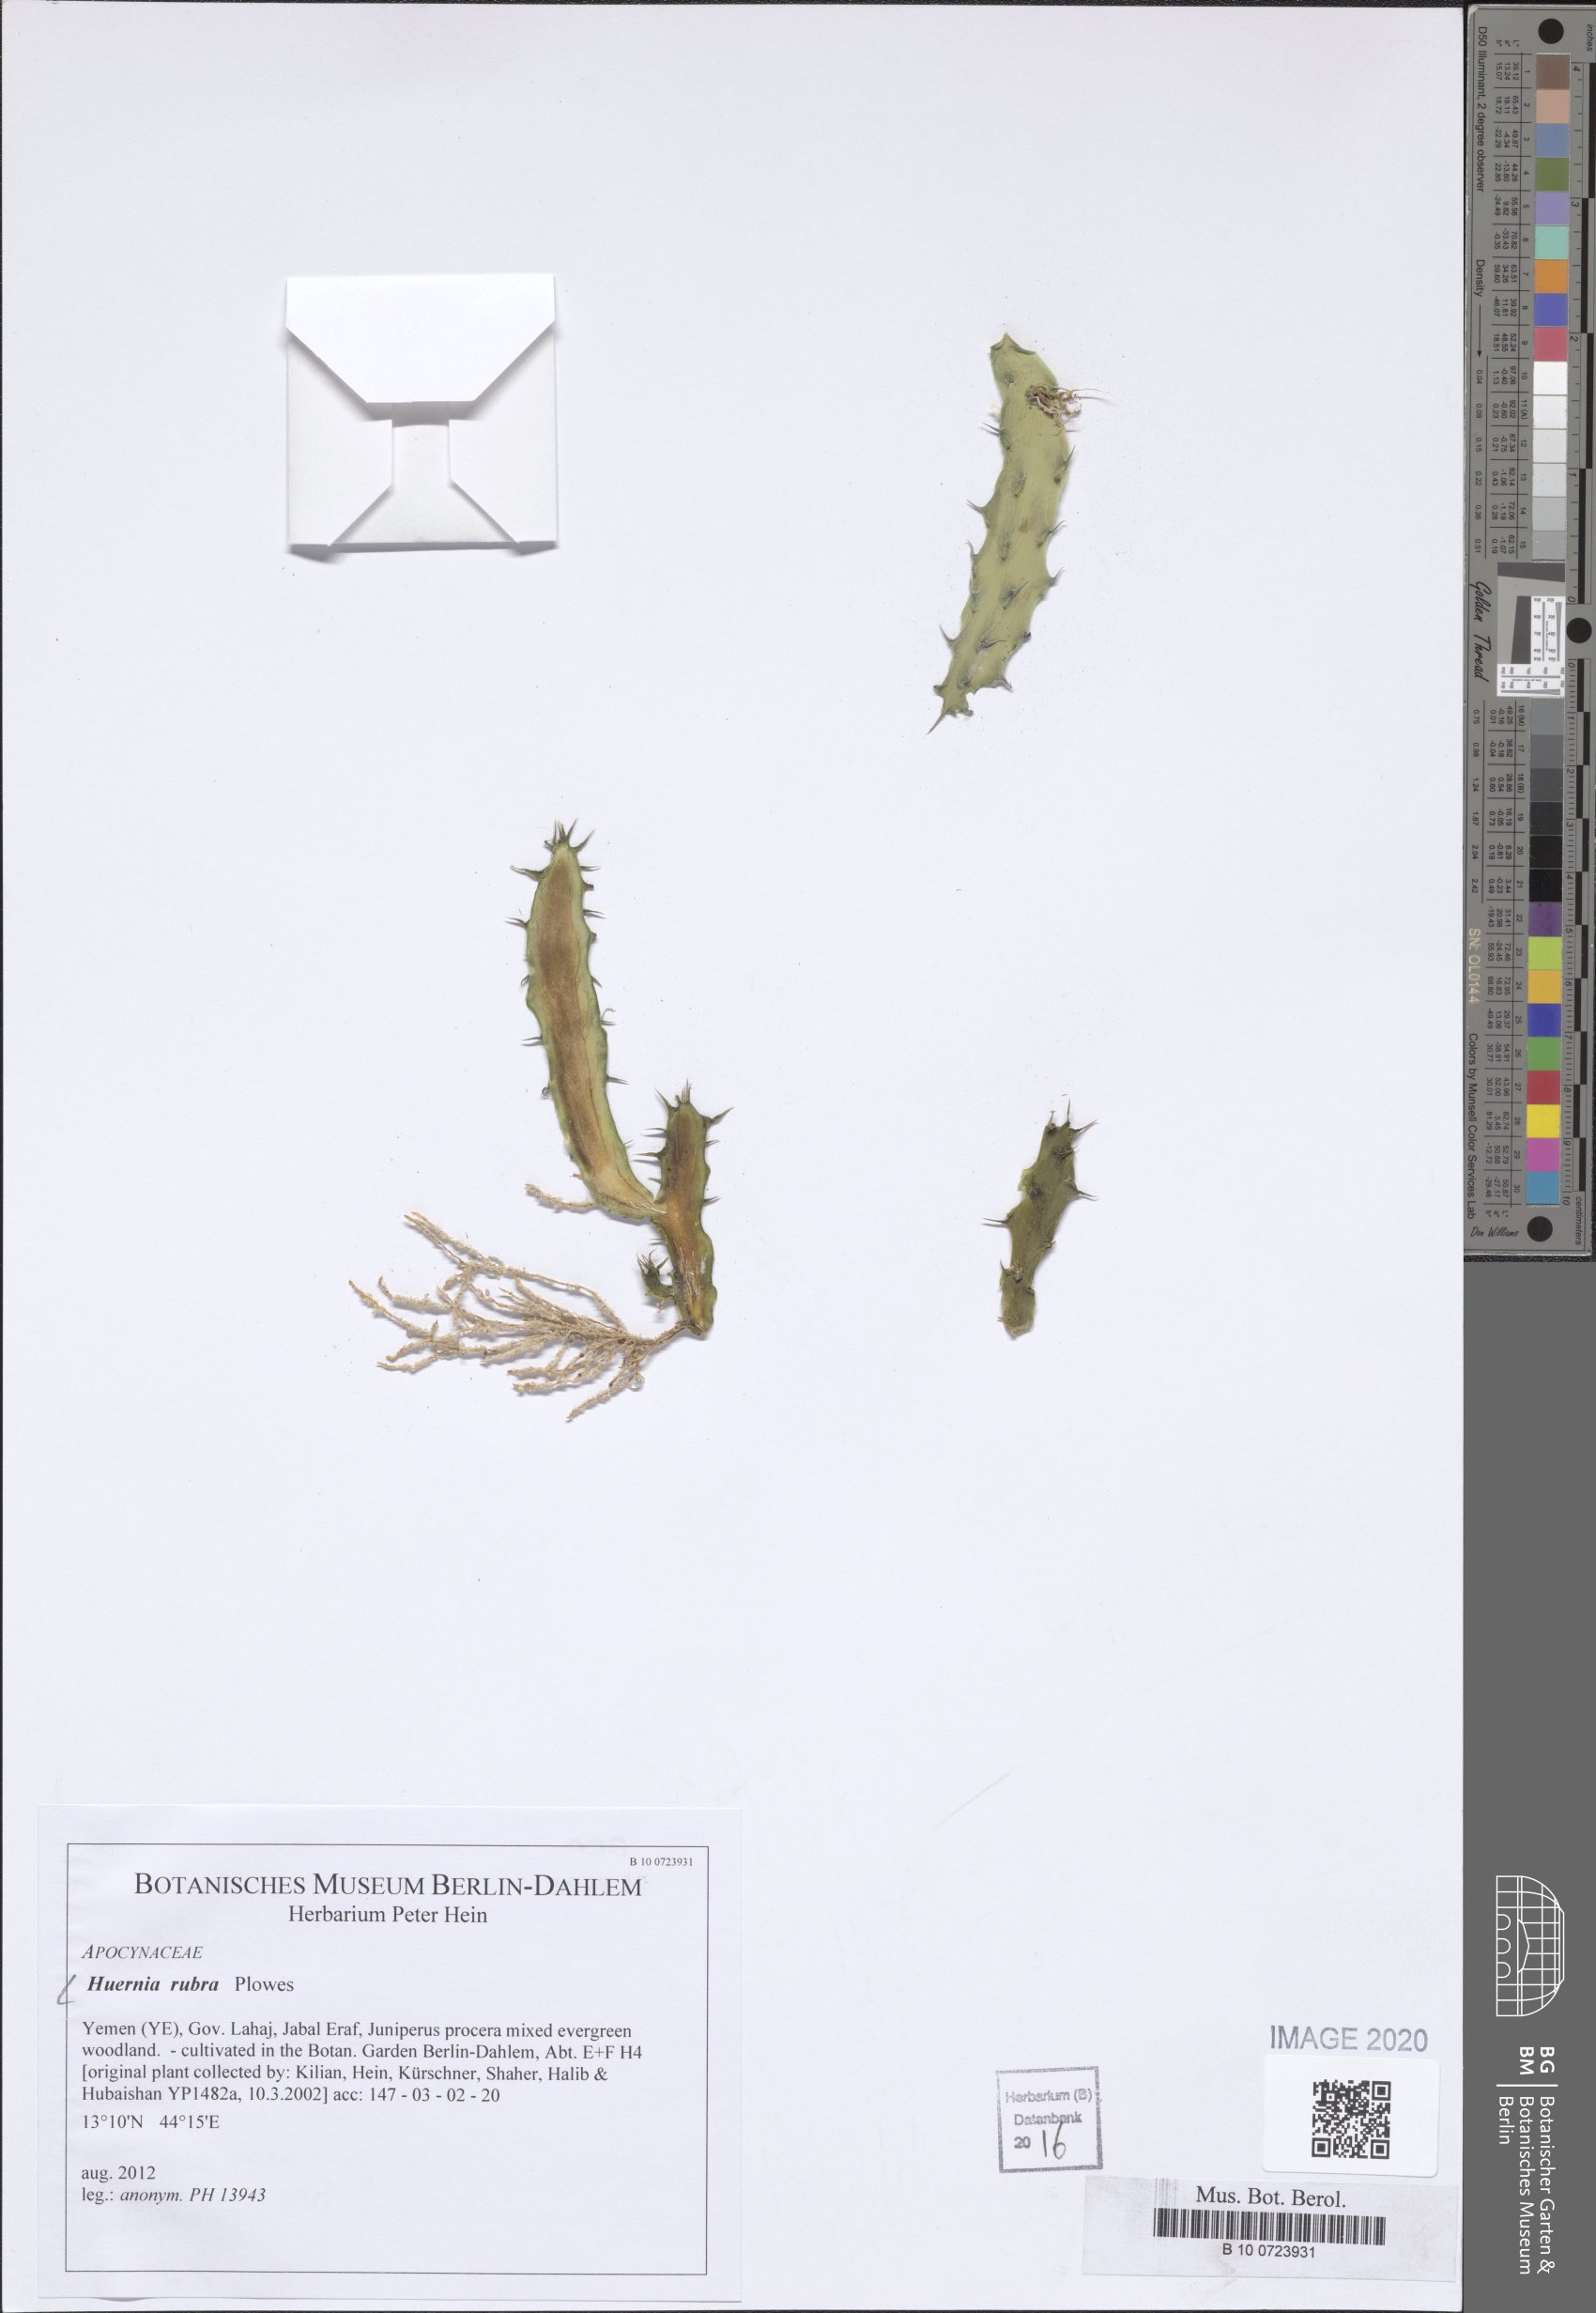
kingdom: Plantae
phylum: Tracheophyta
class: Liliopsida
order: Poales
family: Poaceae
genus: Avena
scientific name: Avena abyssinica
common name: Ethiopian oat
